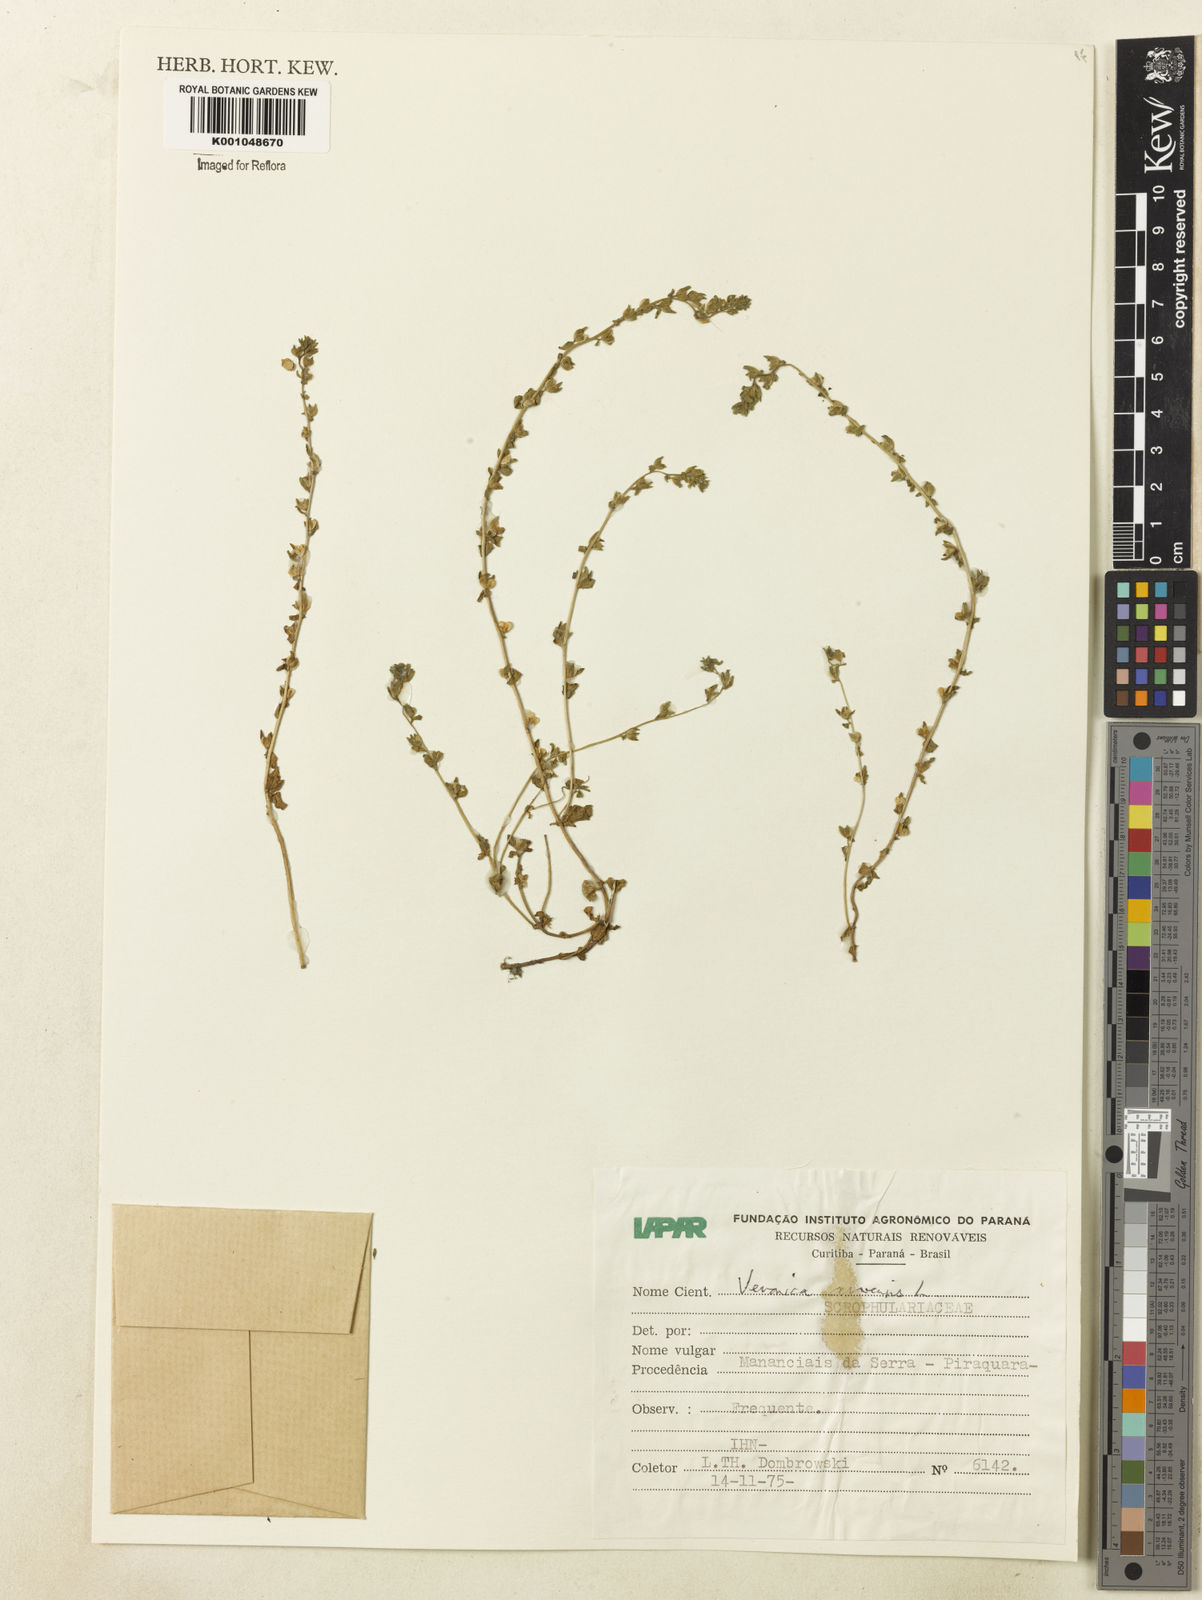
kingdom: Plantae
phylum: Tracheophyta
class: Magnoliopsida
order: Lamiales
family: Plantaginaceae
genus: Veronica
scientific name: Veronica arvensis
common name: Corn speedwell
